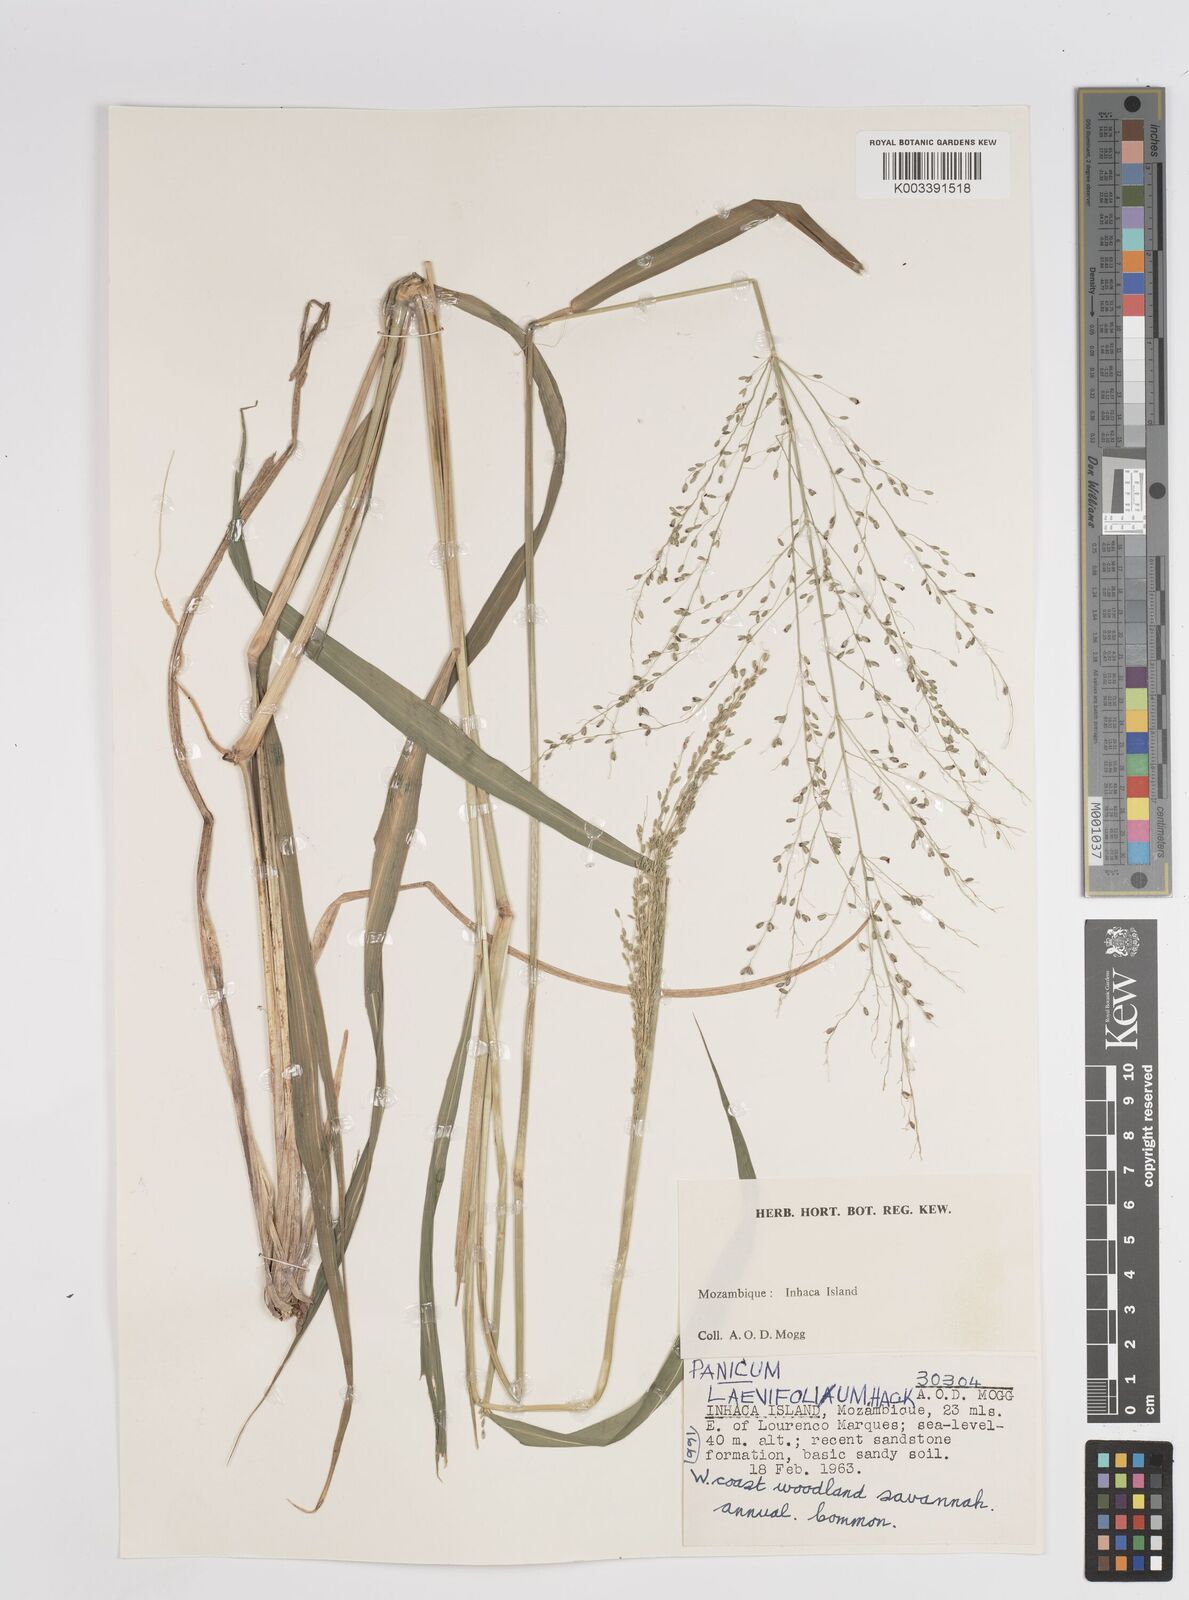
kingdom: Plantae
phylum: Tracheophyta
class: Liliopsida
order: Poales
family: Poaceae
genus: Megathyrsus
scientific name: Megathyrsus maximus
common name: Guineagrass
